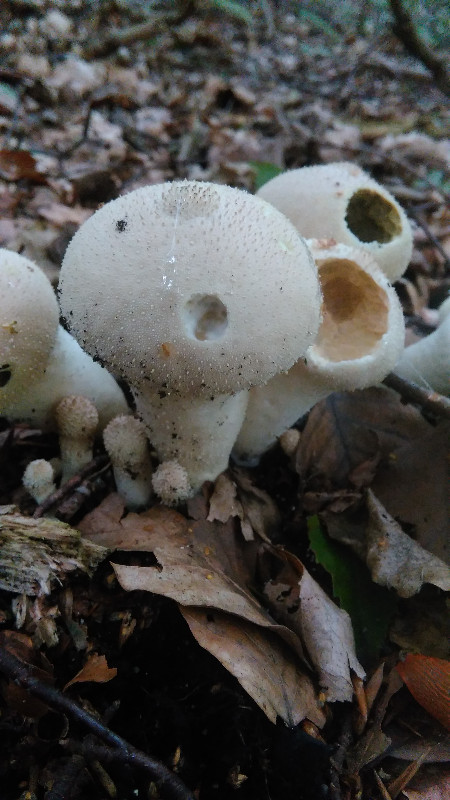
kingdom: Fungi
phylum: Basidiomycota
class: Agaricomycetes
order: Agaricales
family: Lycoperdaceae
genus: Lycoperdon
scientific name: Lycoperdon perlatum
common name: krystal-støvbold
